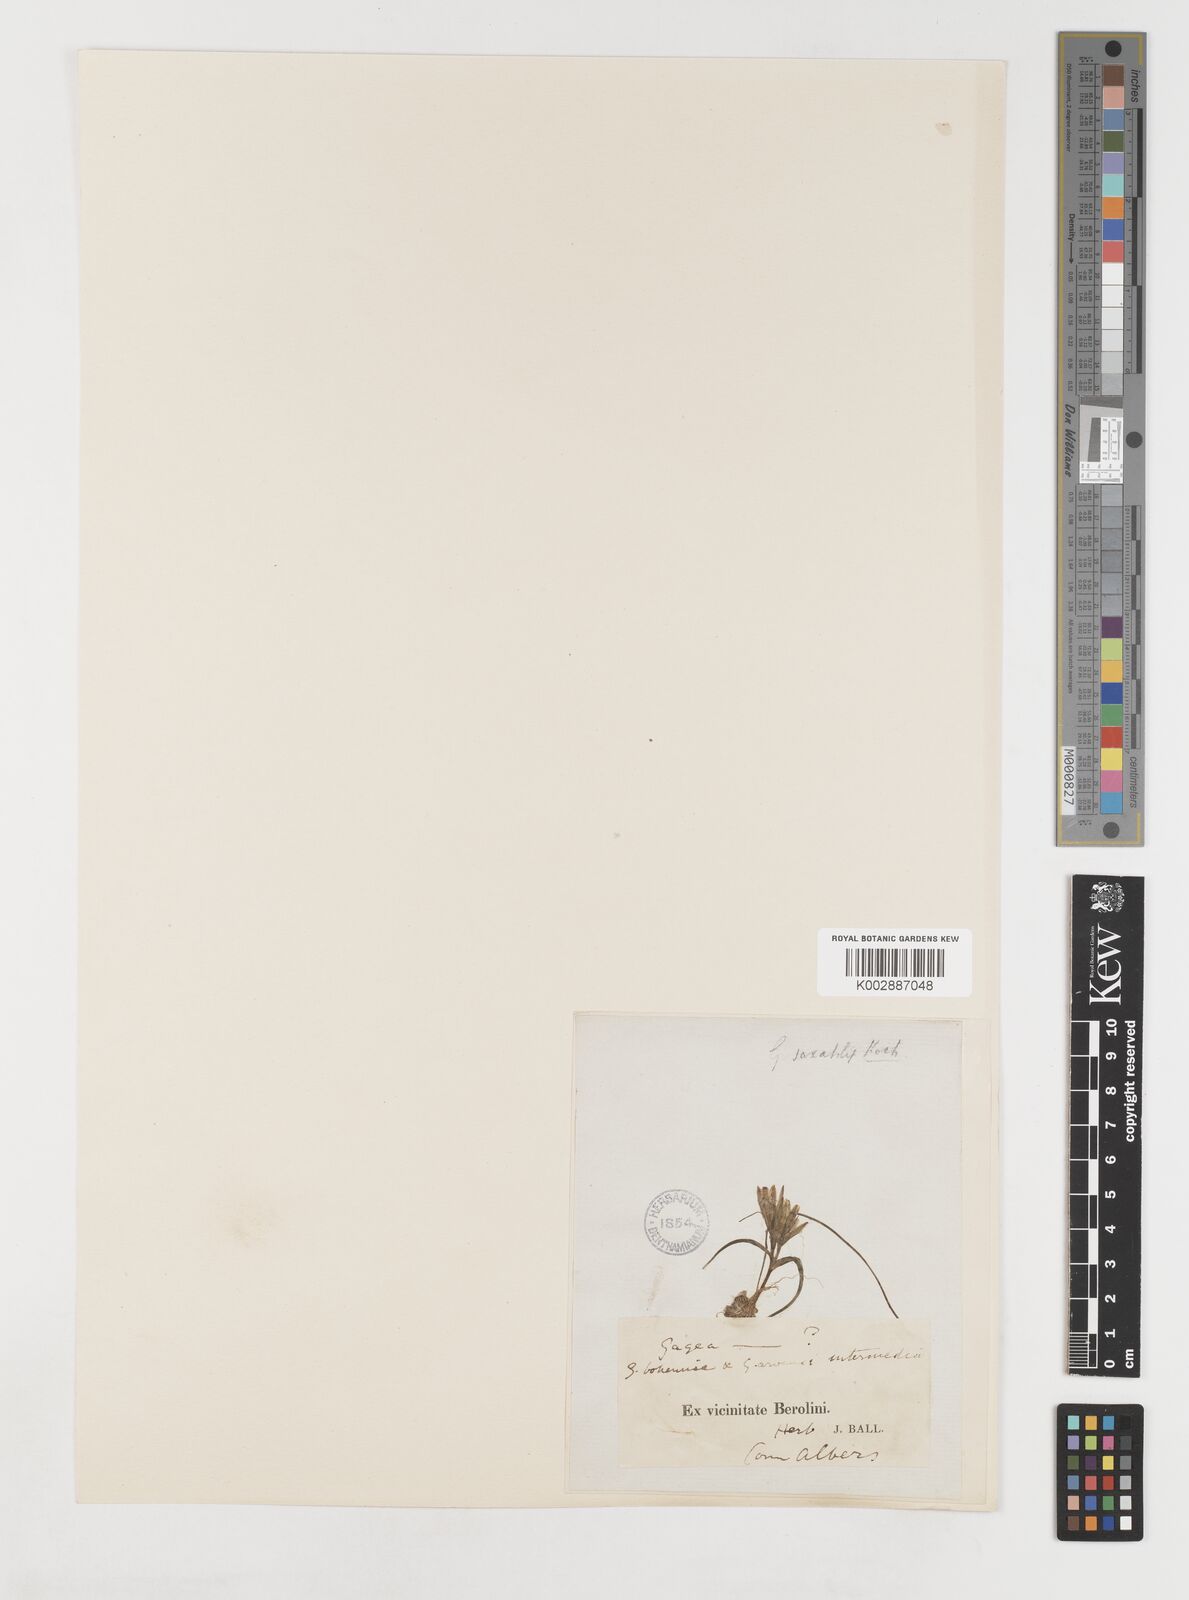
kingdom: Plantae
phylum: Tracheophyta
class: Liliopsida
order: Liliales
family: Liliaceae
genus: Gagea
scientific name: Gagea bohemica
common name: Early star-of-bethlehem
